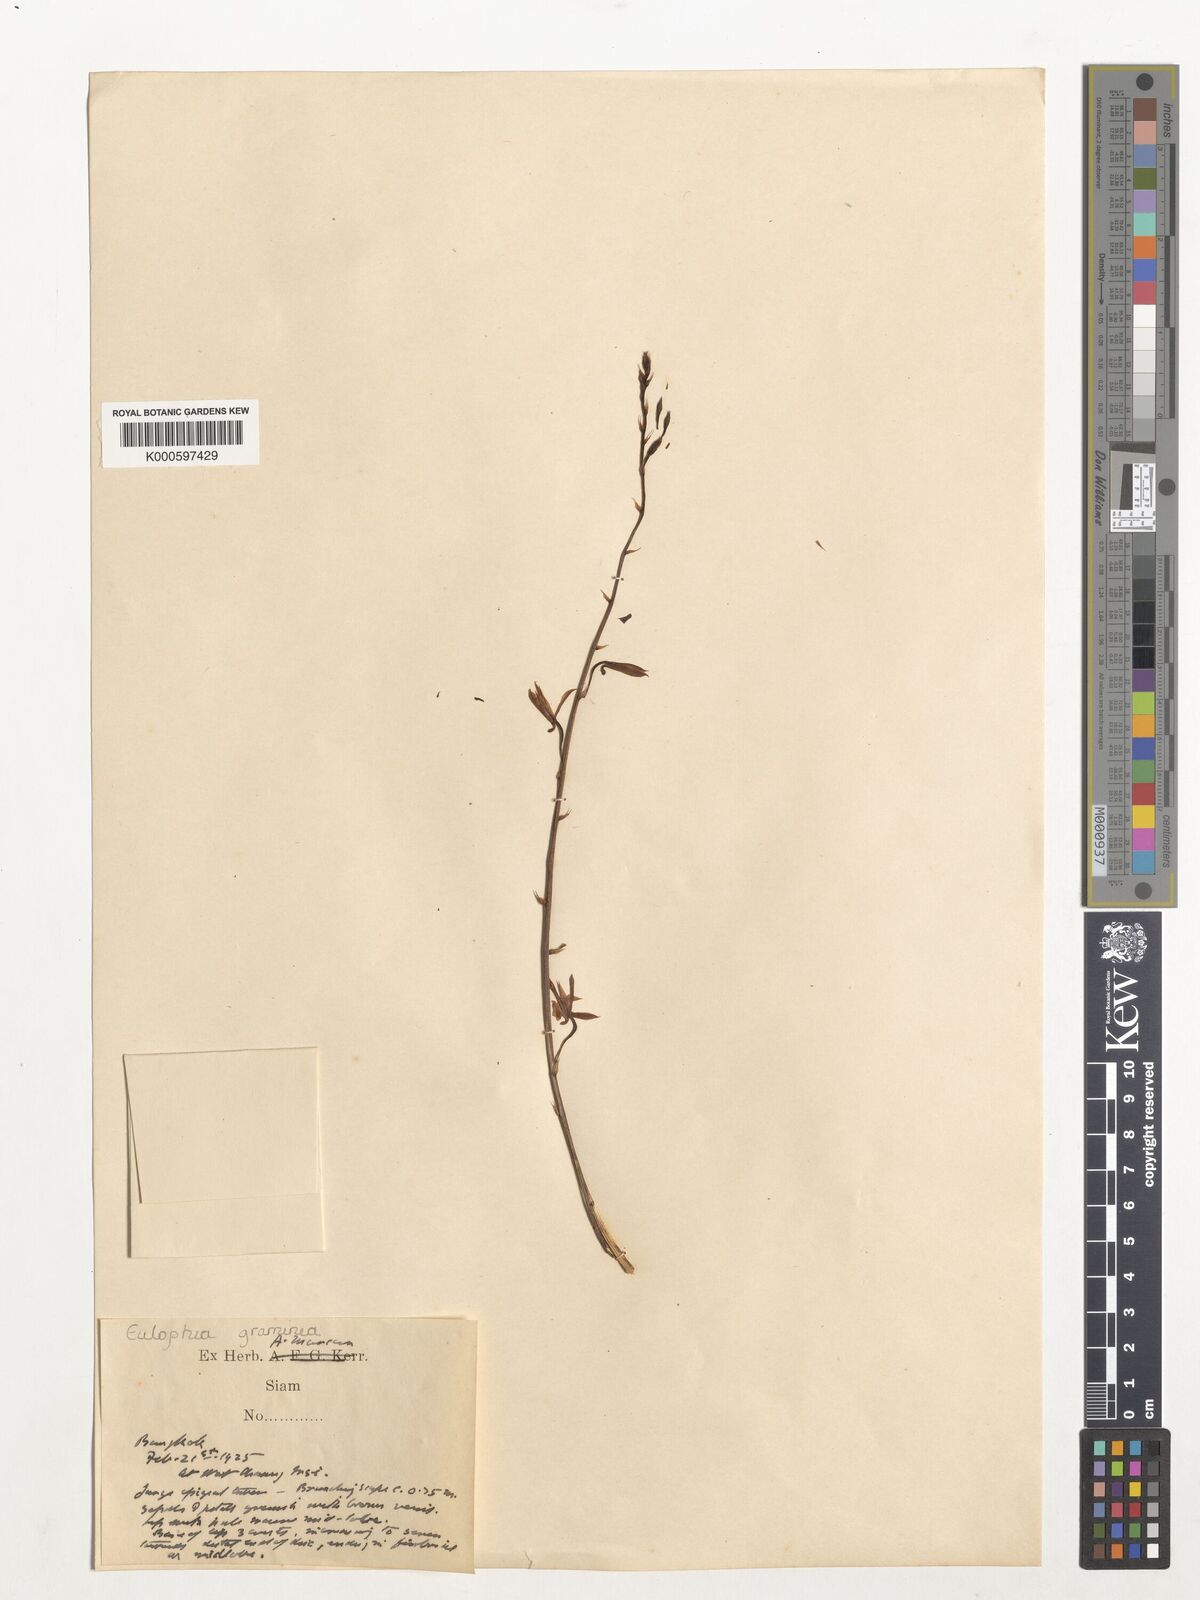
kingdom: Plantae
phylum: Tracheophyta
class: Liliopsida
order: Asparagales
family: Orchidaceae
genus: Eulophia
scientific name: Eulophia graminea
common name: Orchid
